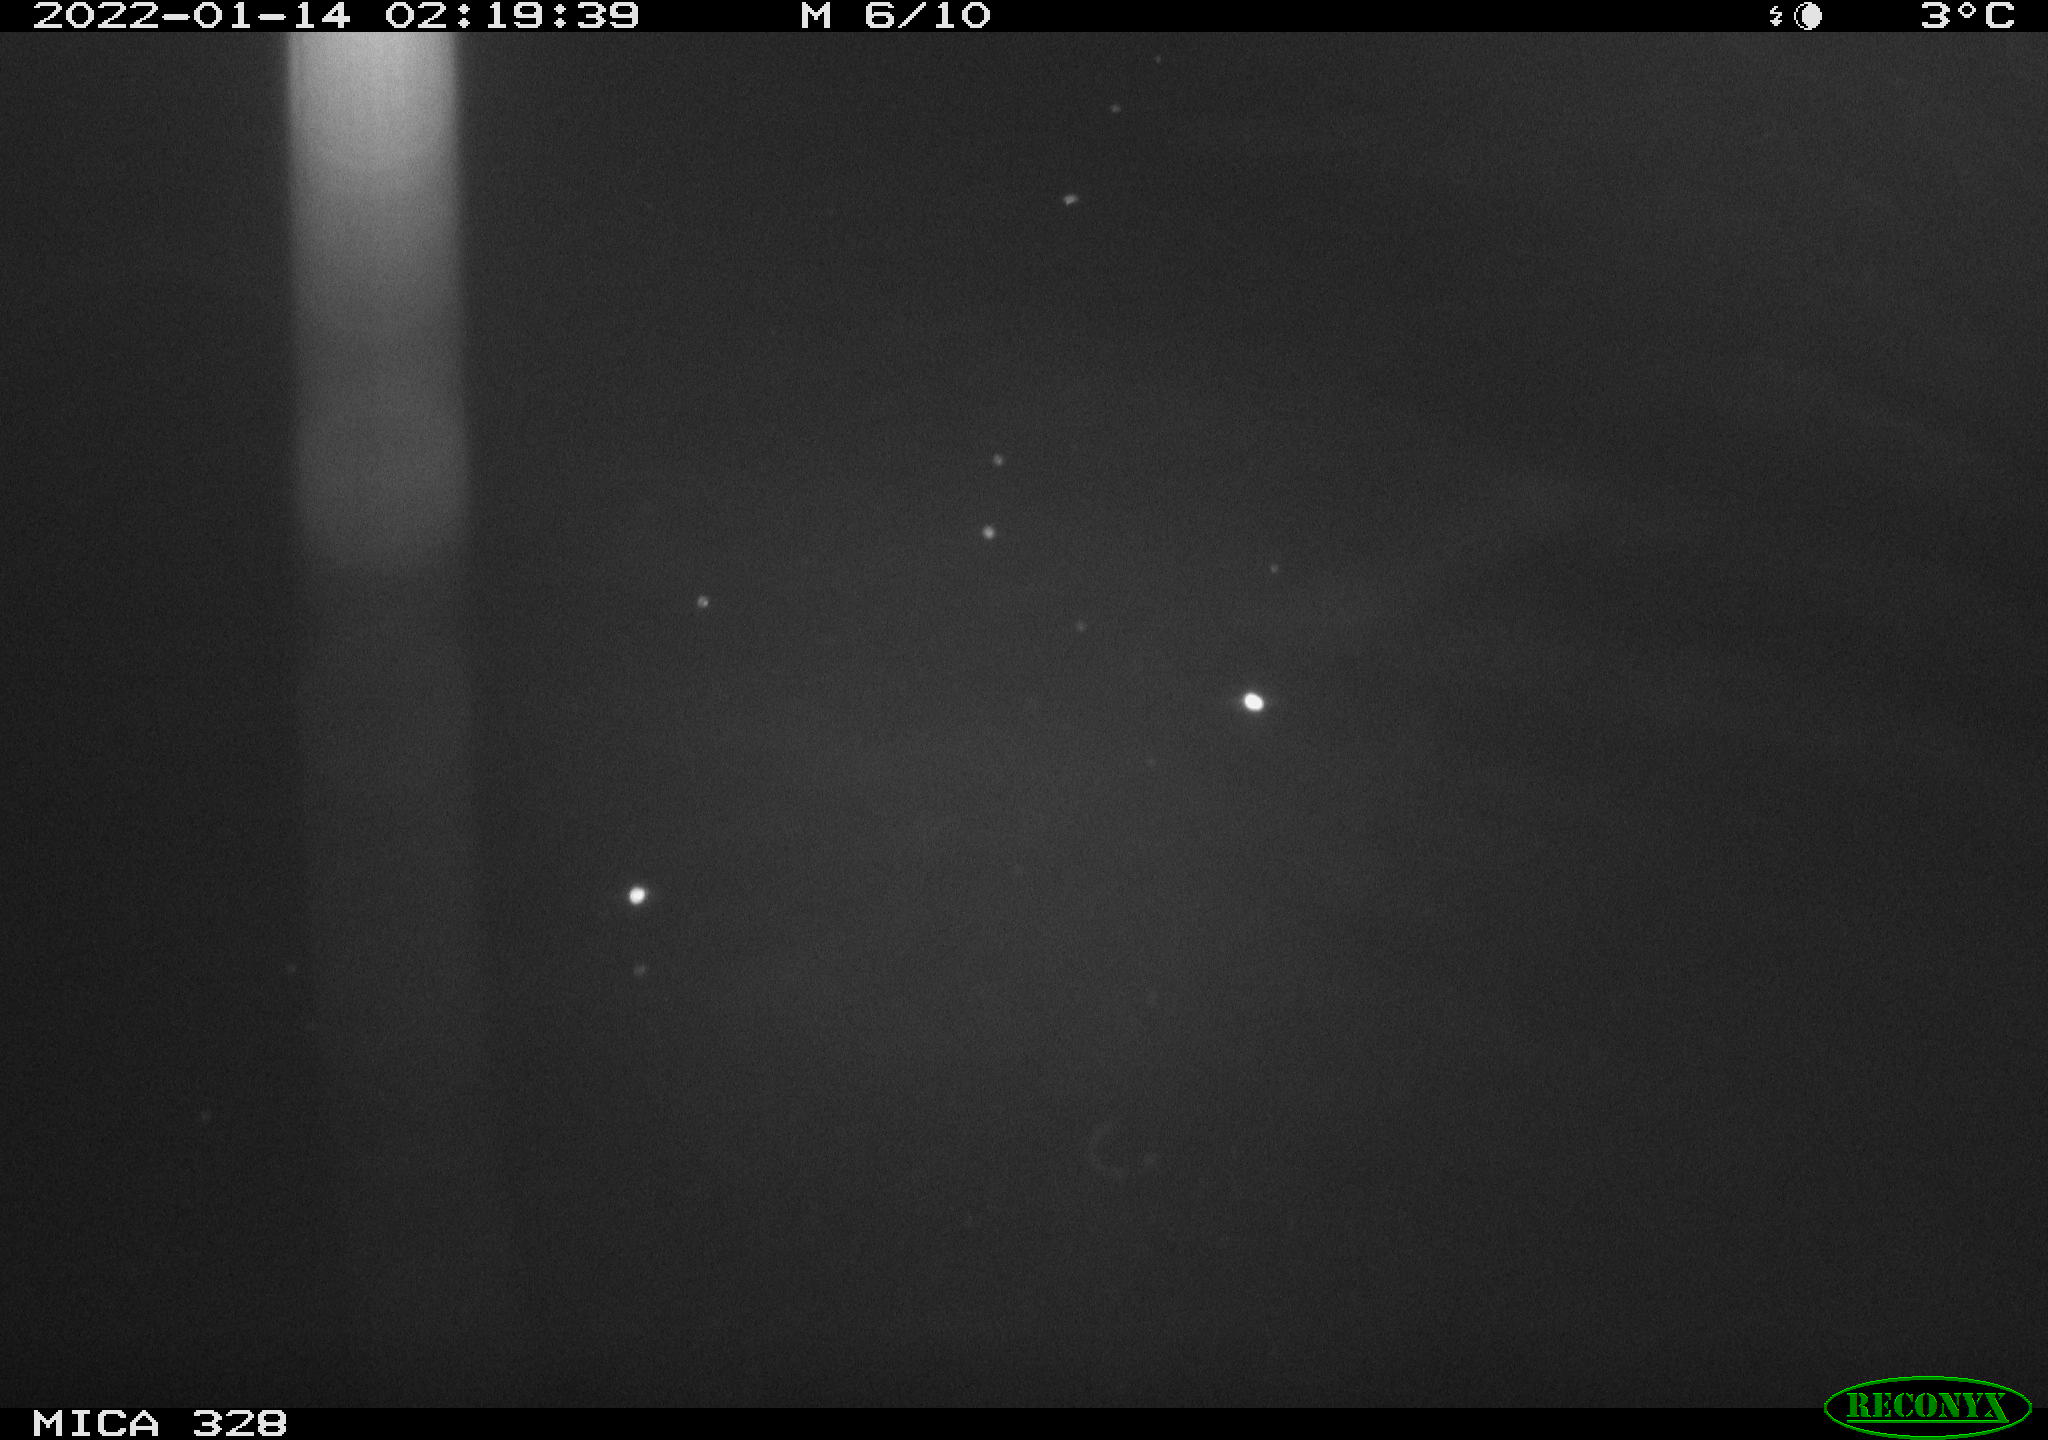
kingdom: Animalia
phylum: Chordata
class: Mammalia
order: Rodentia
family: Cricetidae
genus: Ondatra
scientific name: Ondatra zibethicus
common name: Muskrat
